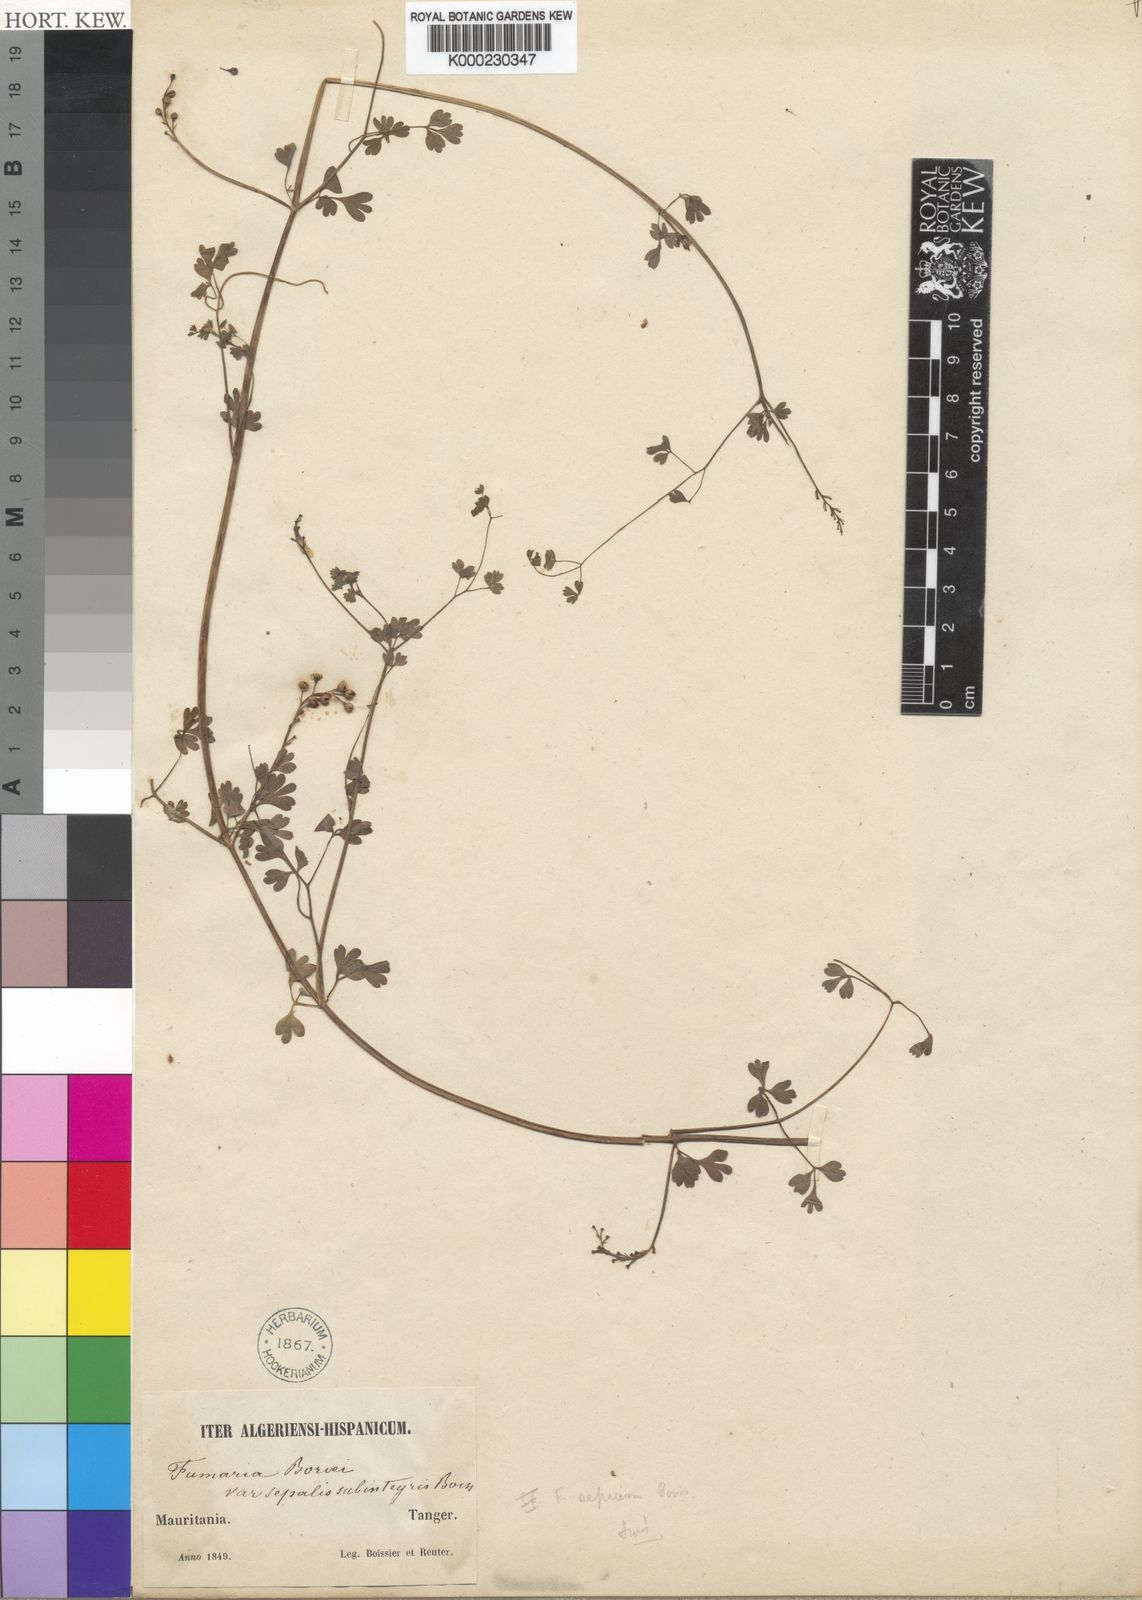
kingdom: Plantae
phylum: Tracheophyta
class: Magnoliopsida
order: Ranunculales
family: Papaveraceae
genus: Fumaria
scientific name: Fumaria sepium
